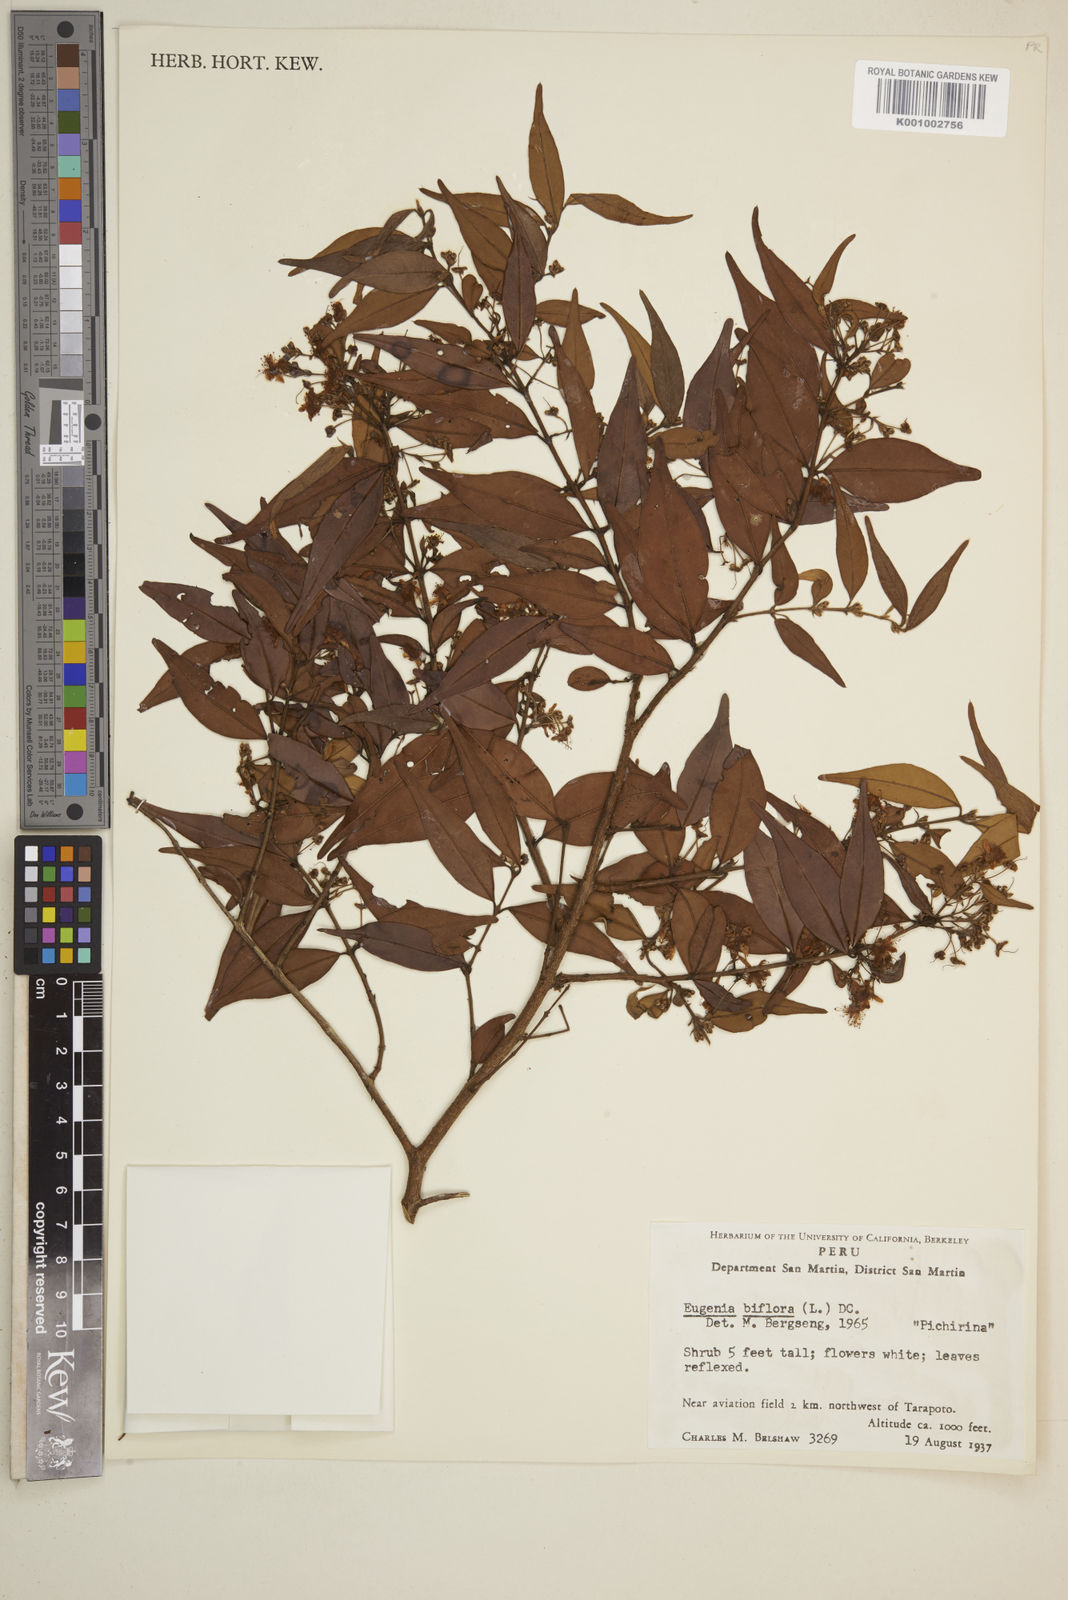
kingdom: Plantae
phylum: Tracheophyta
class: Magnoliopsida
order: Myrtales
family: Myrtaceae
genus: Eugenia
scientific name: Eugenia biflora
